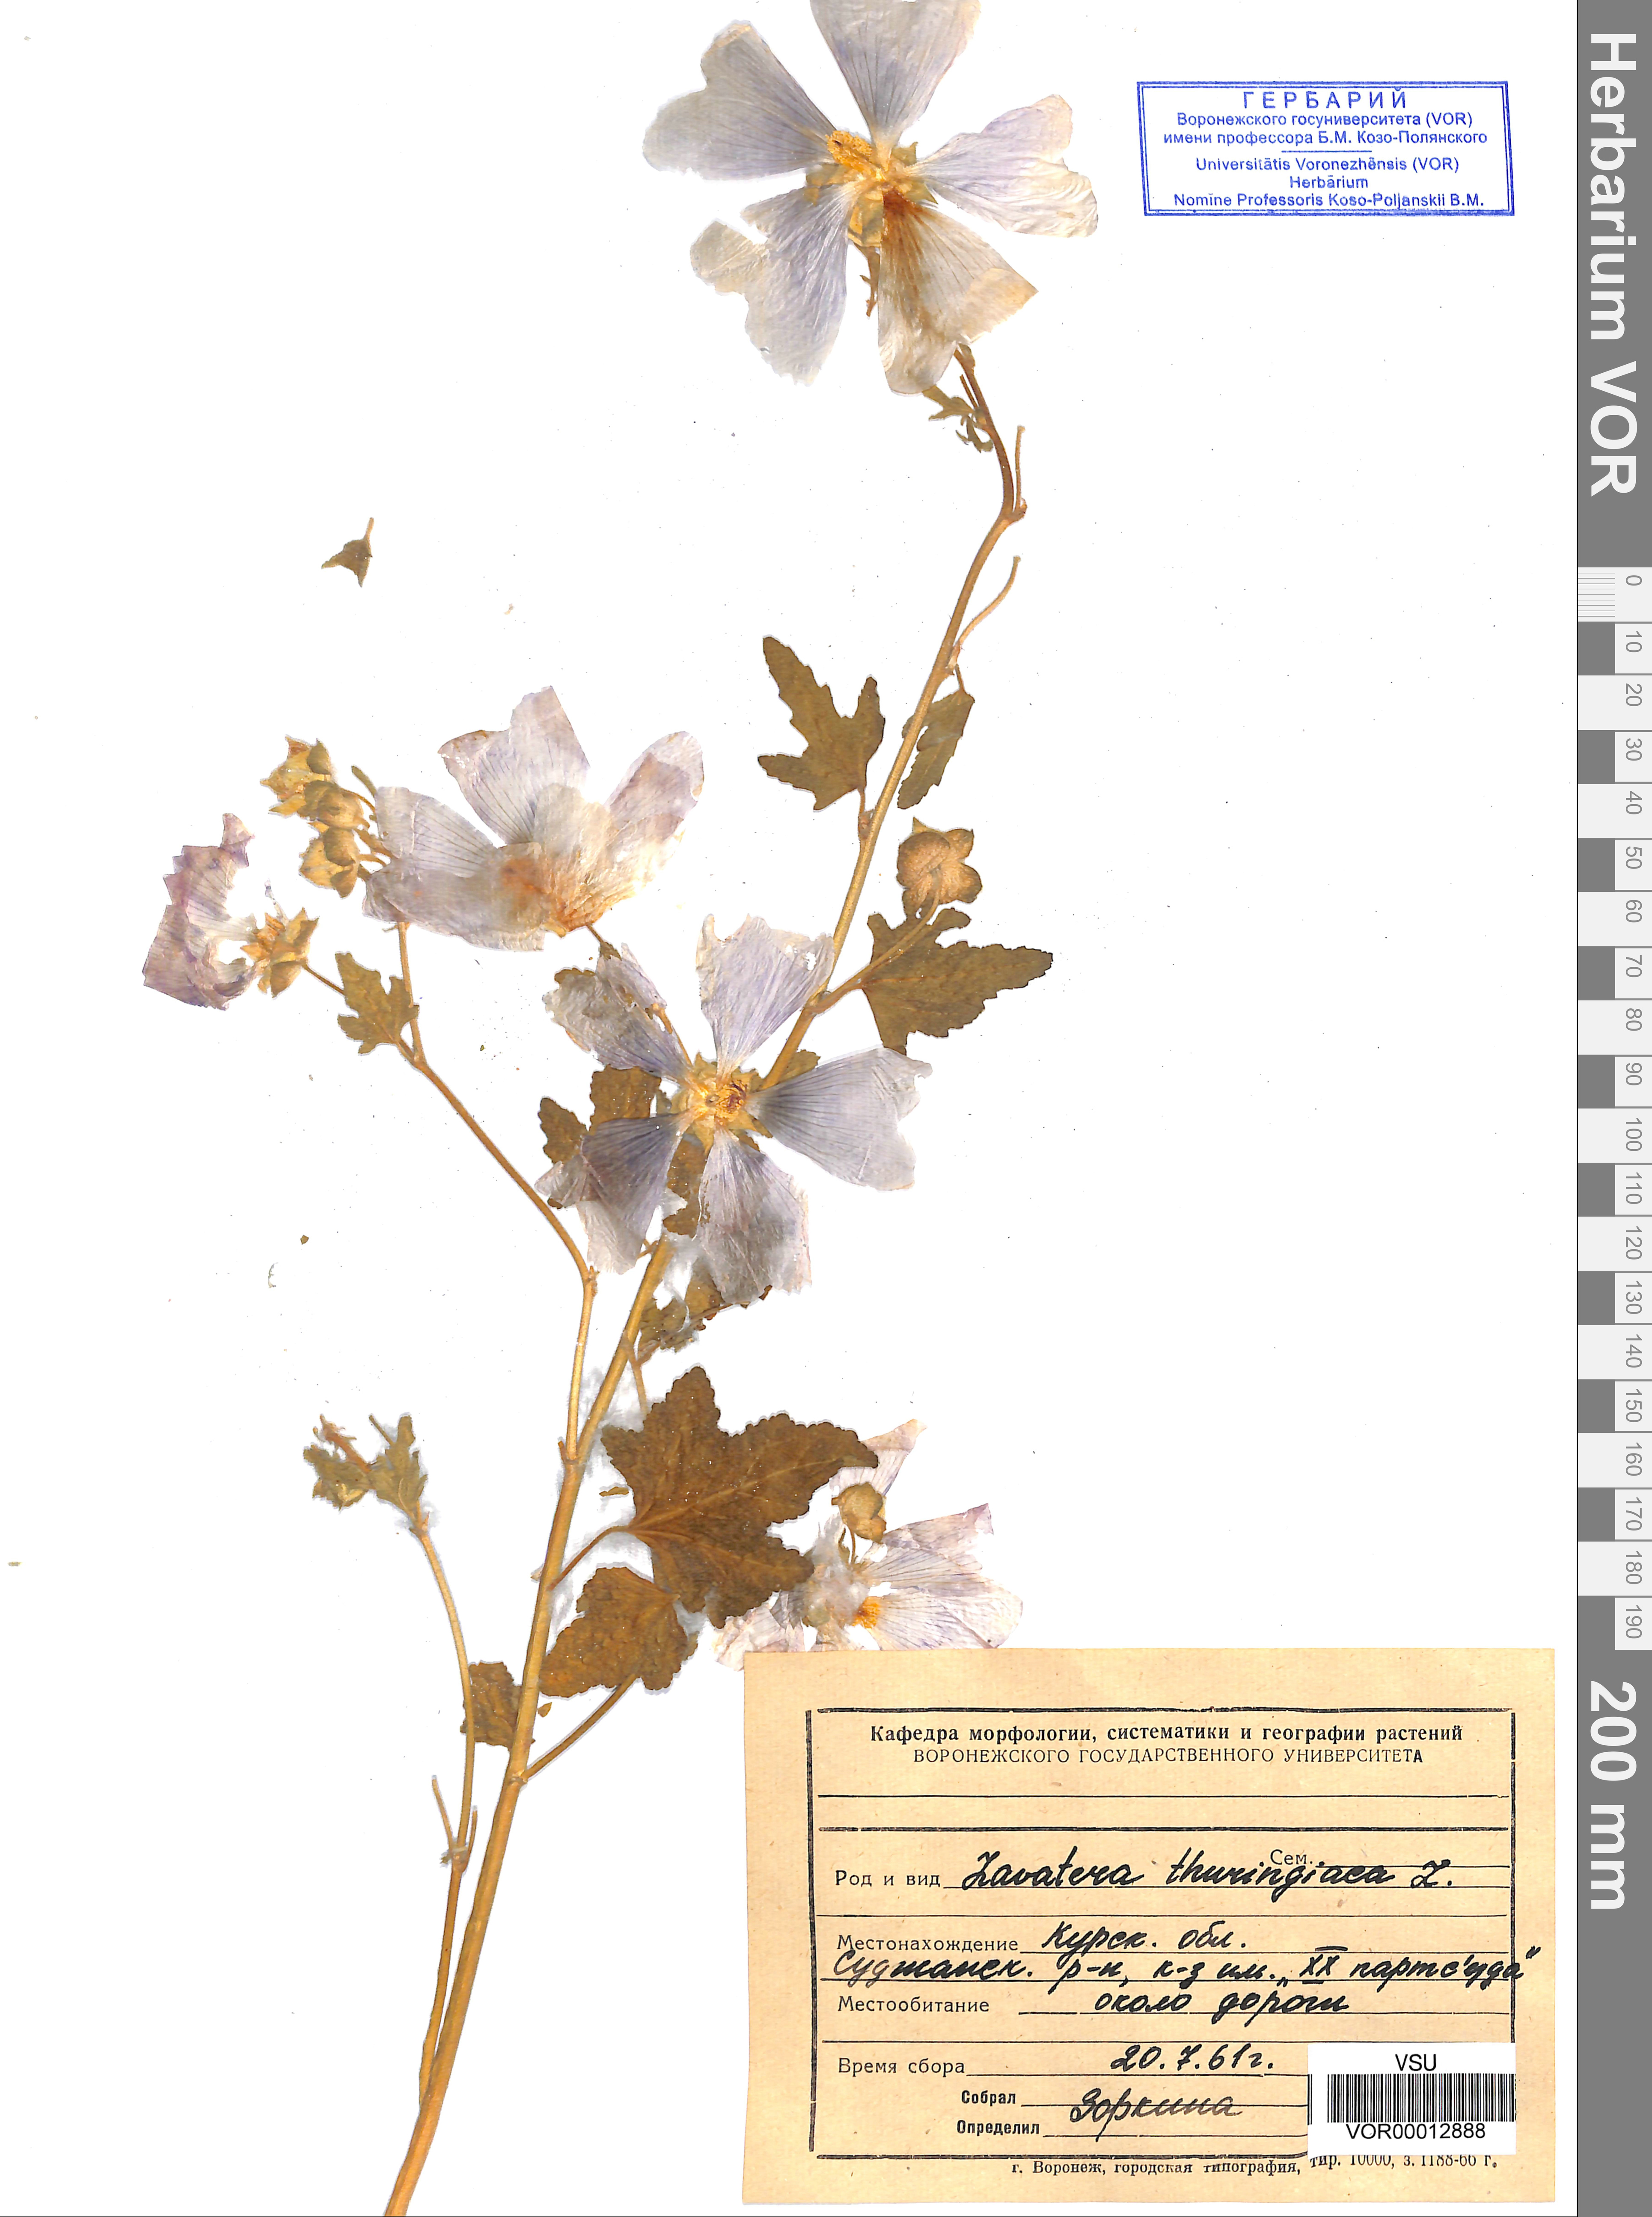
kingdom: Plantae
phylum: Tracheophyta
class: Magnoliopsida
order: Malvales
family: Malvaceae
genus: Malva
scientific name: Malva thuringiaca
